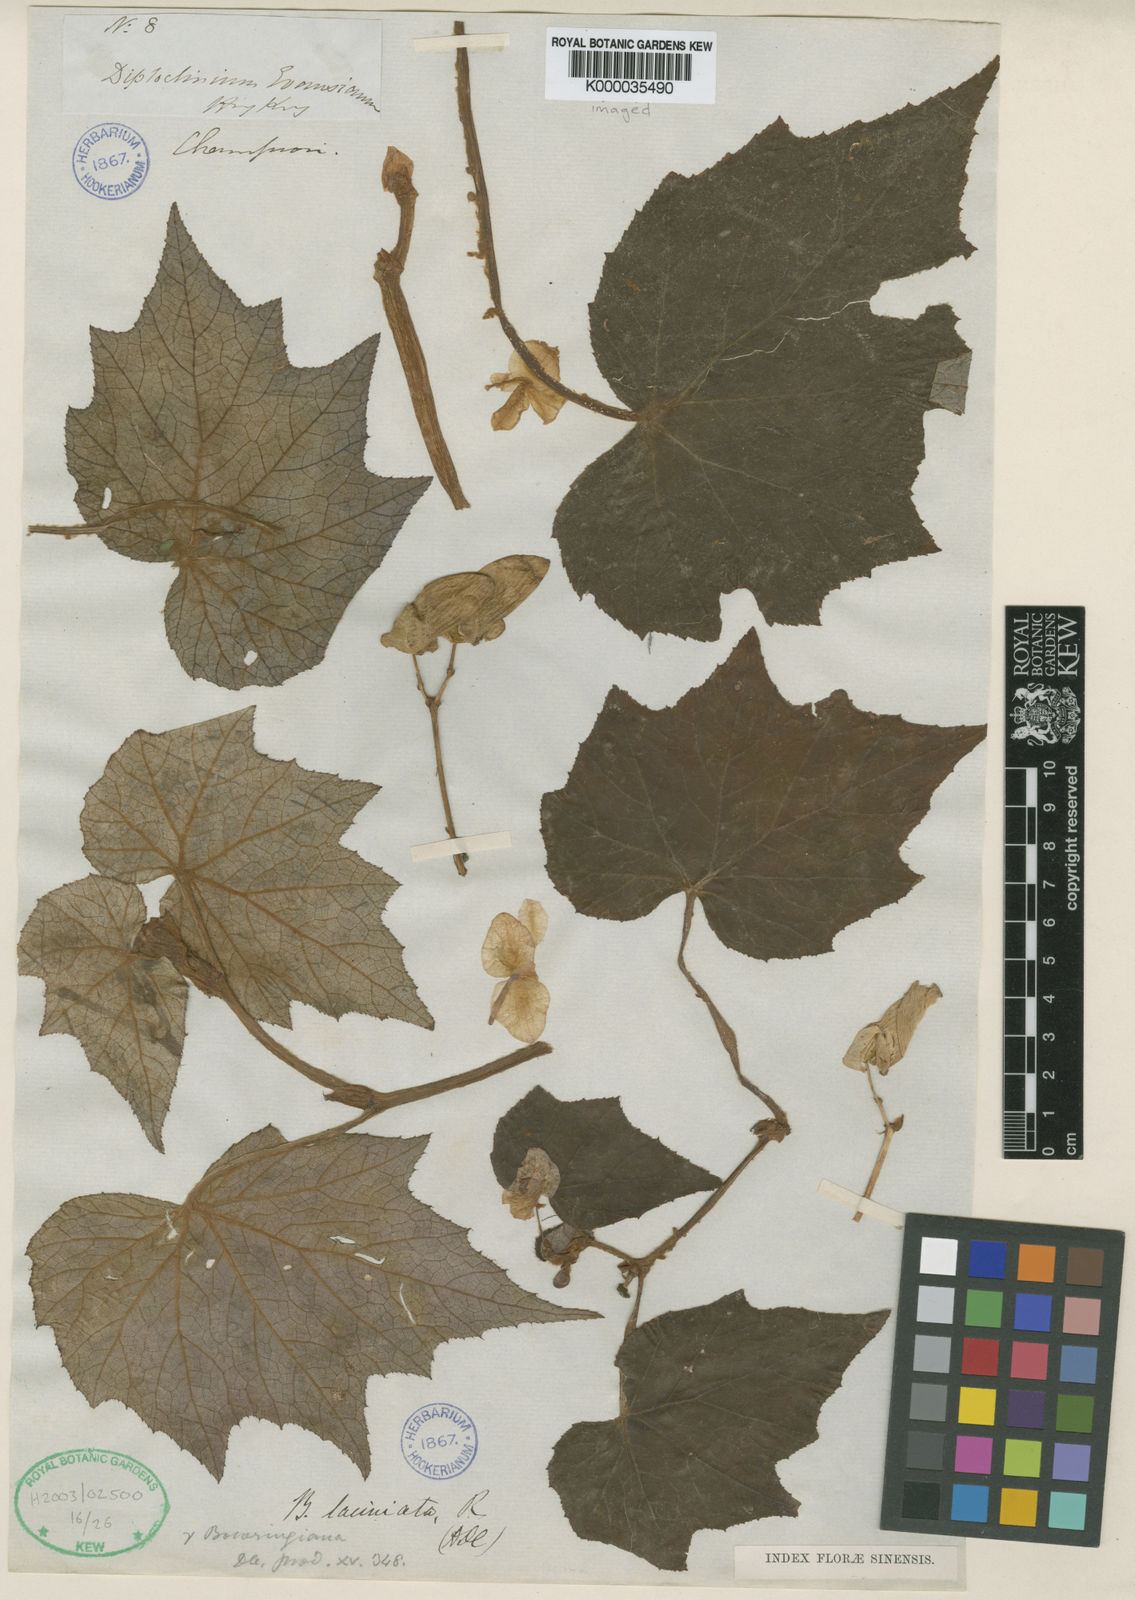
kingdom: Plantae
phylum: Tracheophyta
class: Magnoliopsida
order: Cucurbitales
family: Begoniaceae
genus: Begonia
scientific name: Begonia palmata
